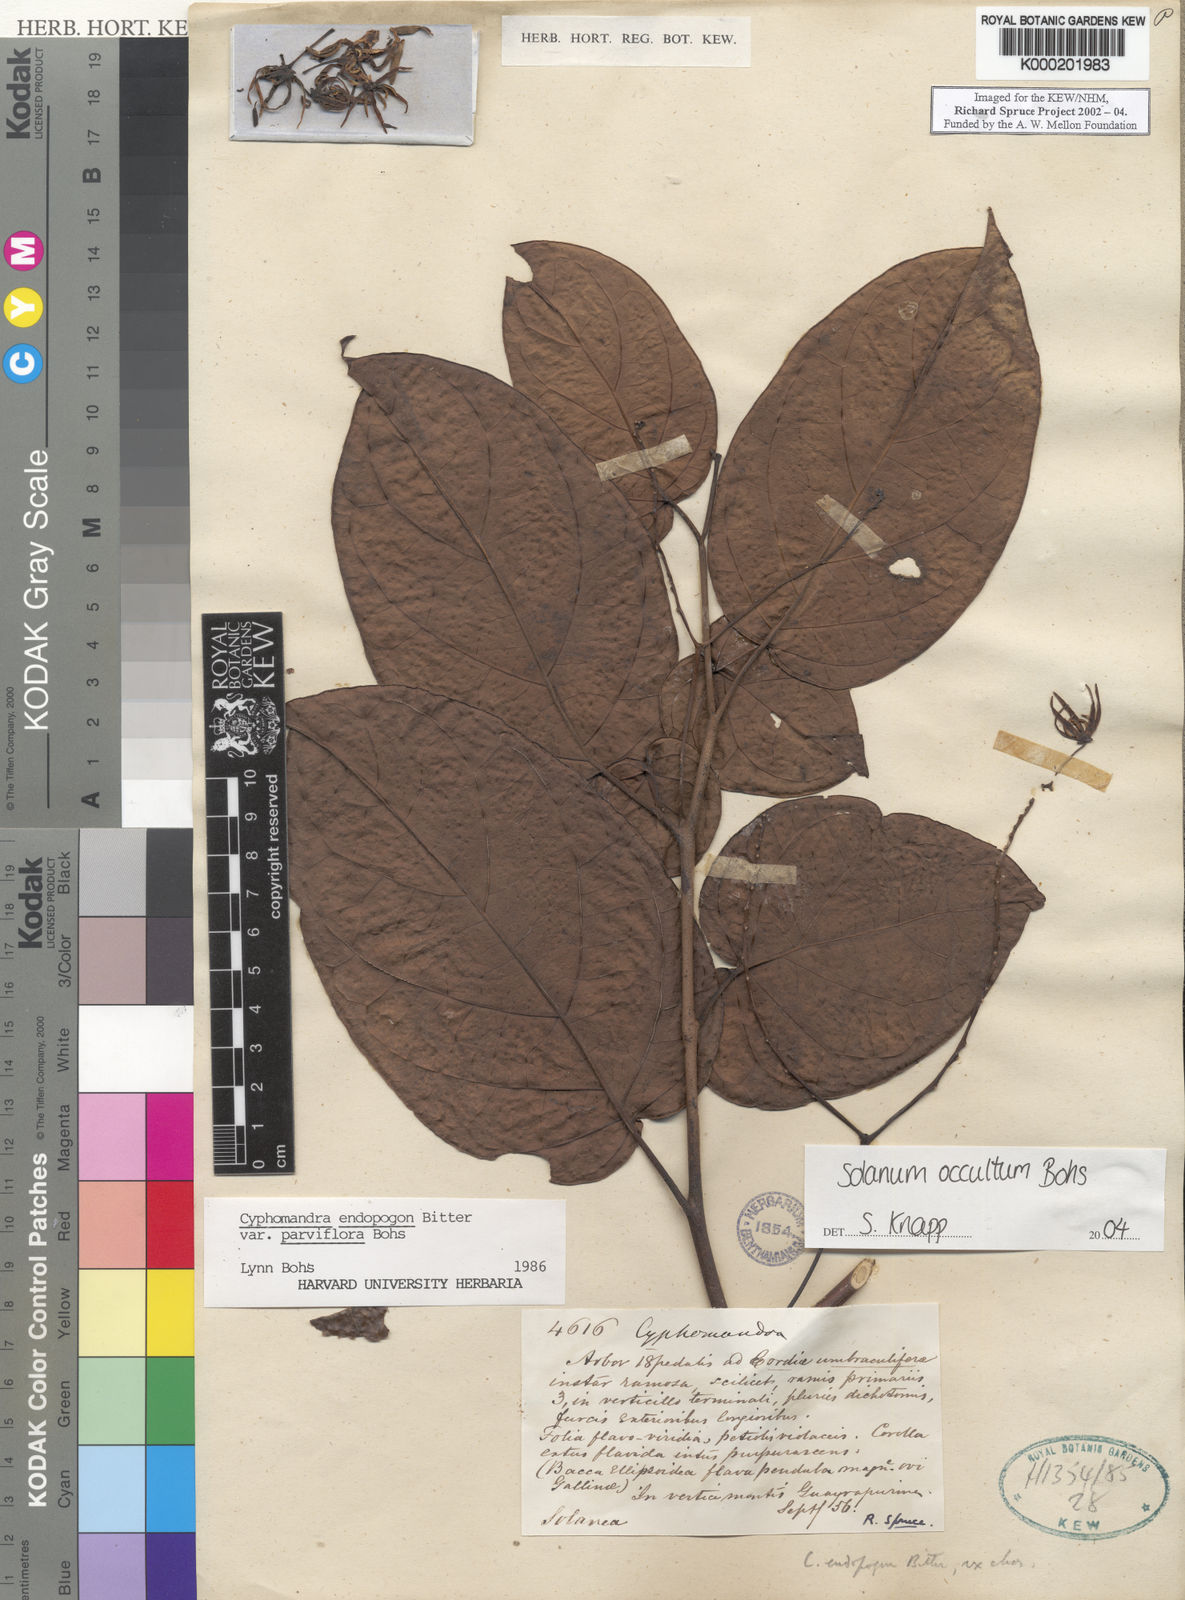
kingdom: Plantae
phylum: Tracheophyta
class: Magnoliopsida
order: Solanales
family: Solanaceae
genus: Solanum
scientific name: Solanum
